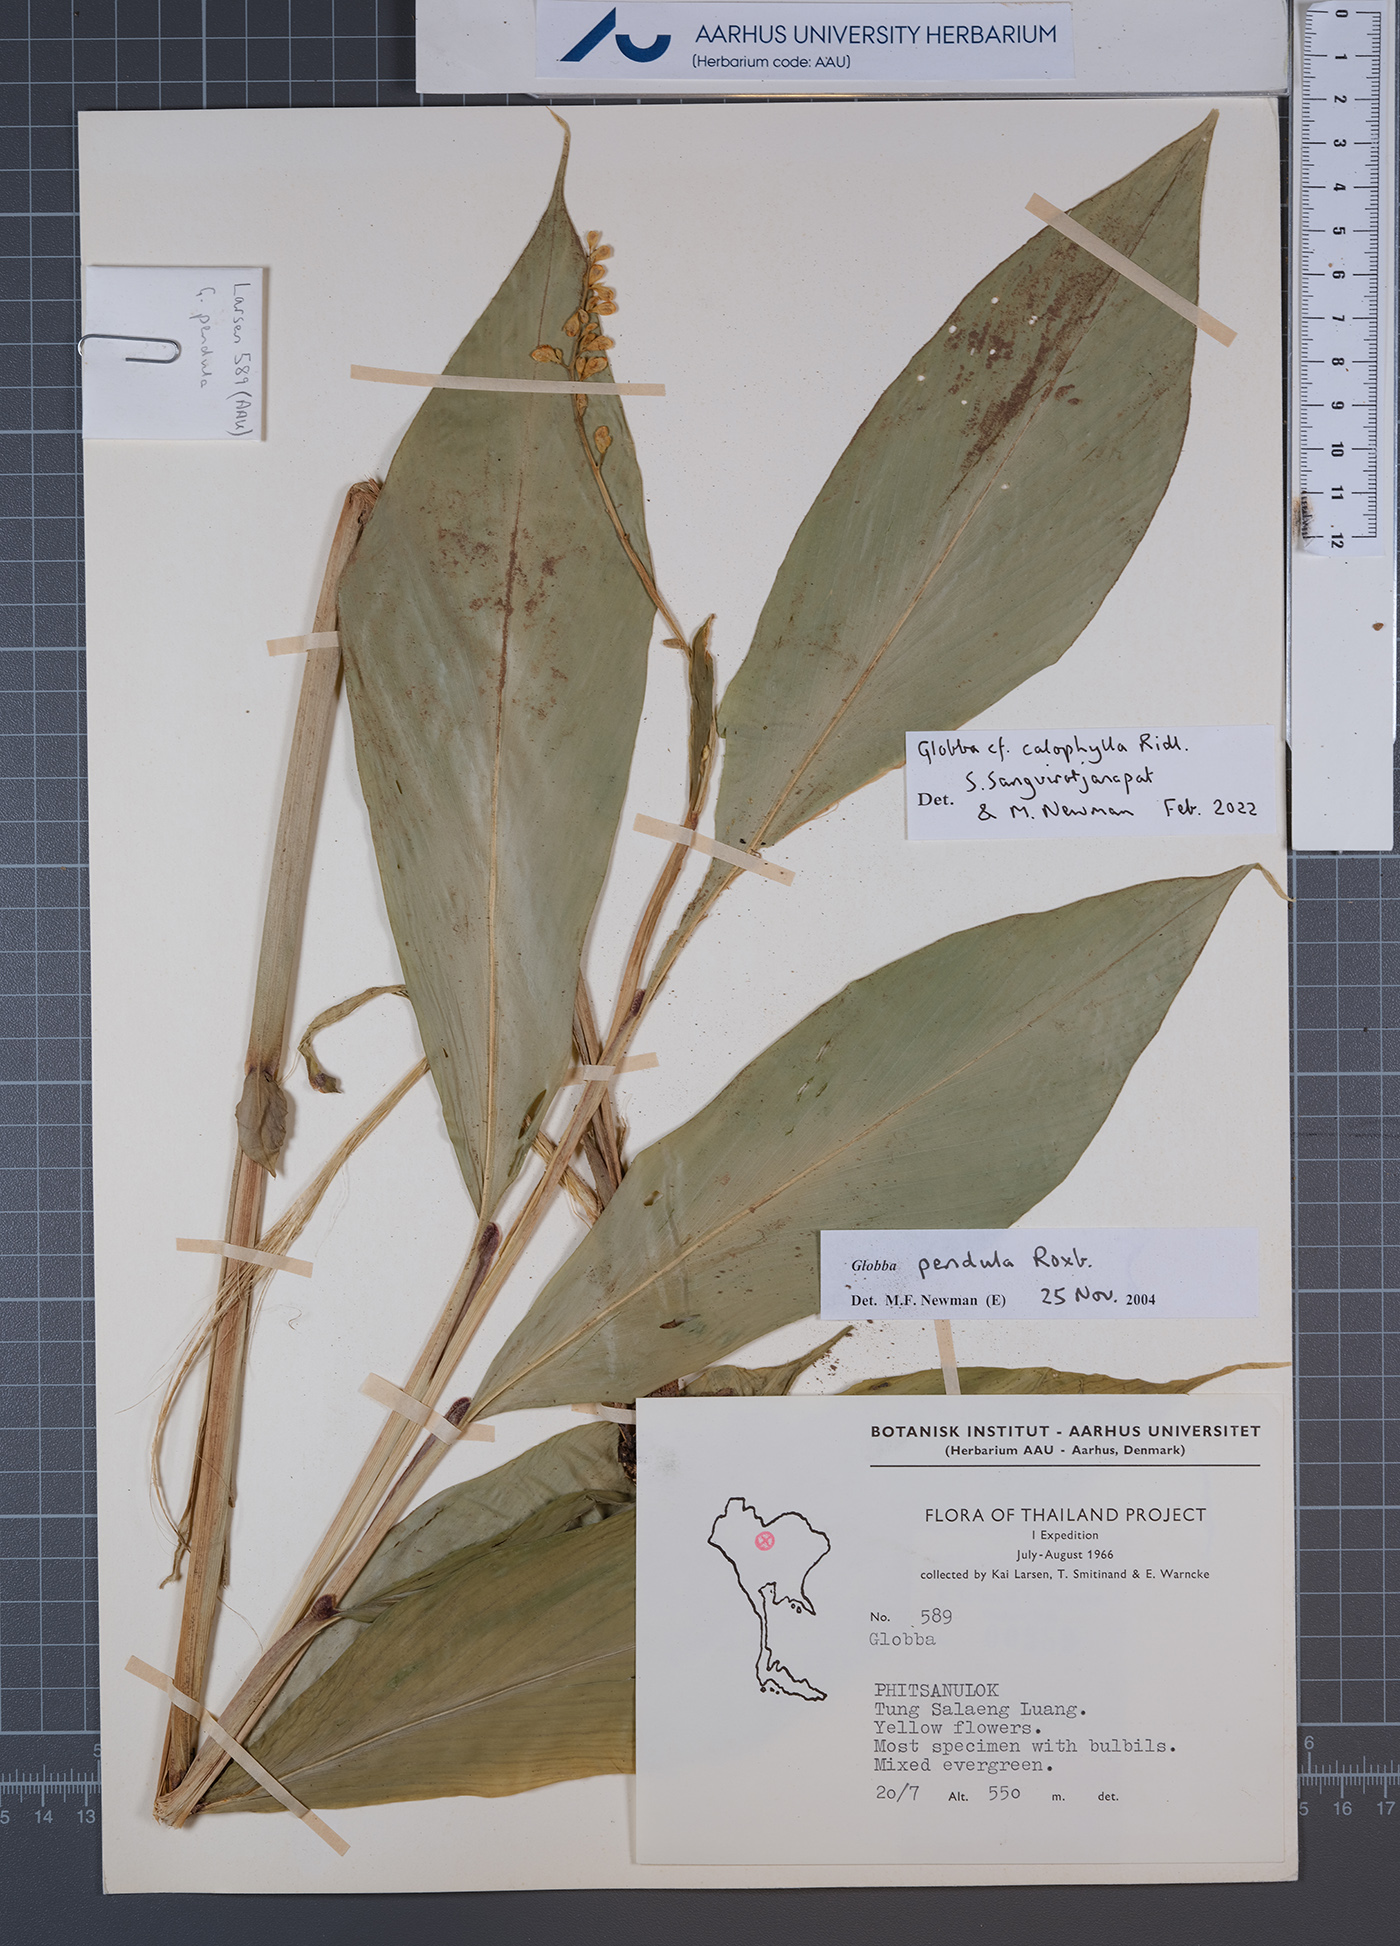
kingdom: Plantae
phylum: Tracheophyta
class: Liliopsida
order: Zingiberales
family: Zingiberaceae
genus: Globba
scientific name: Globba pendula
